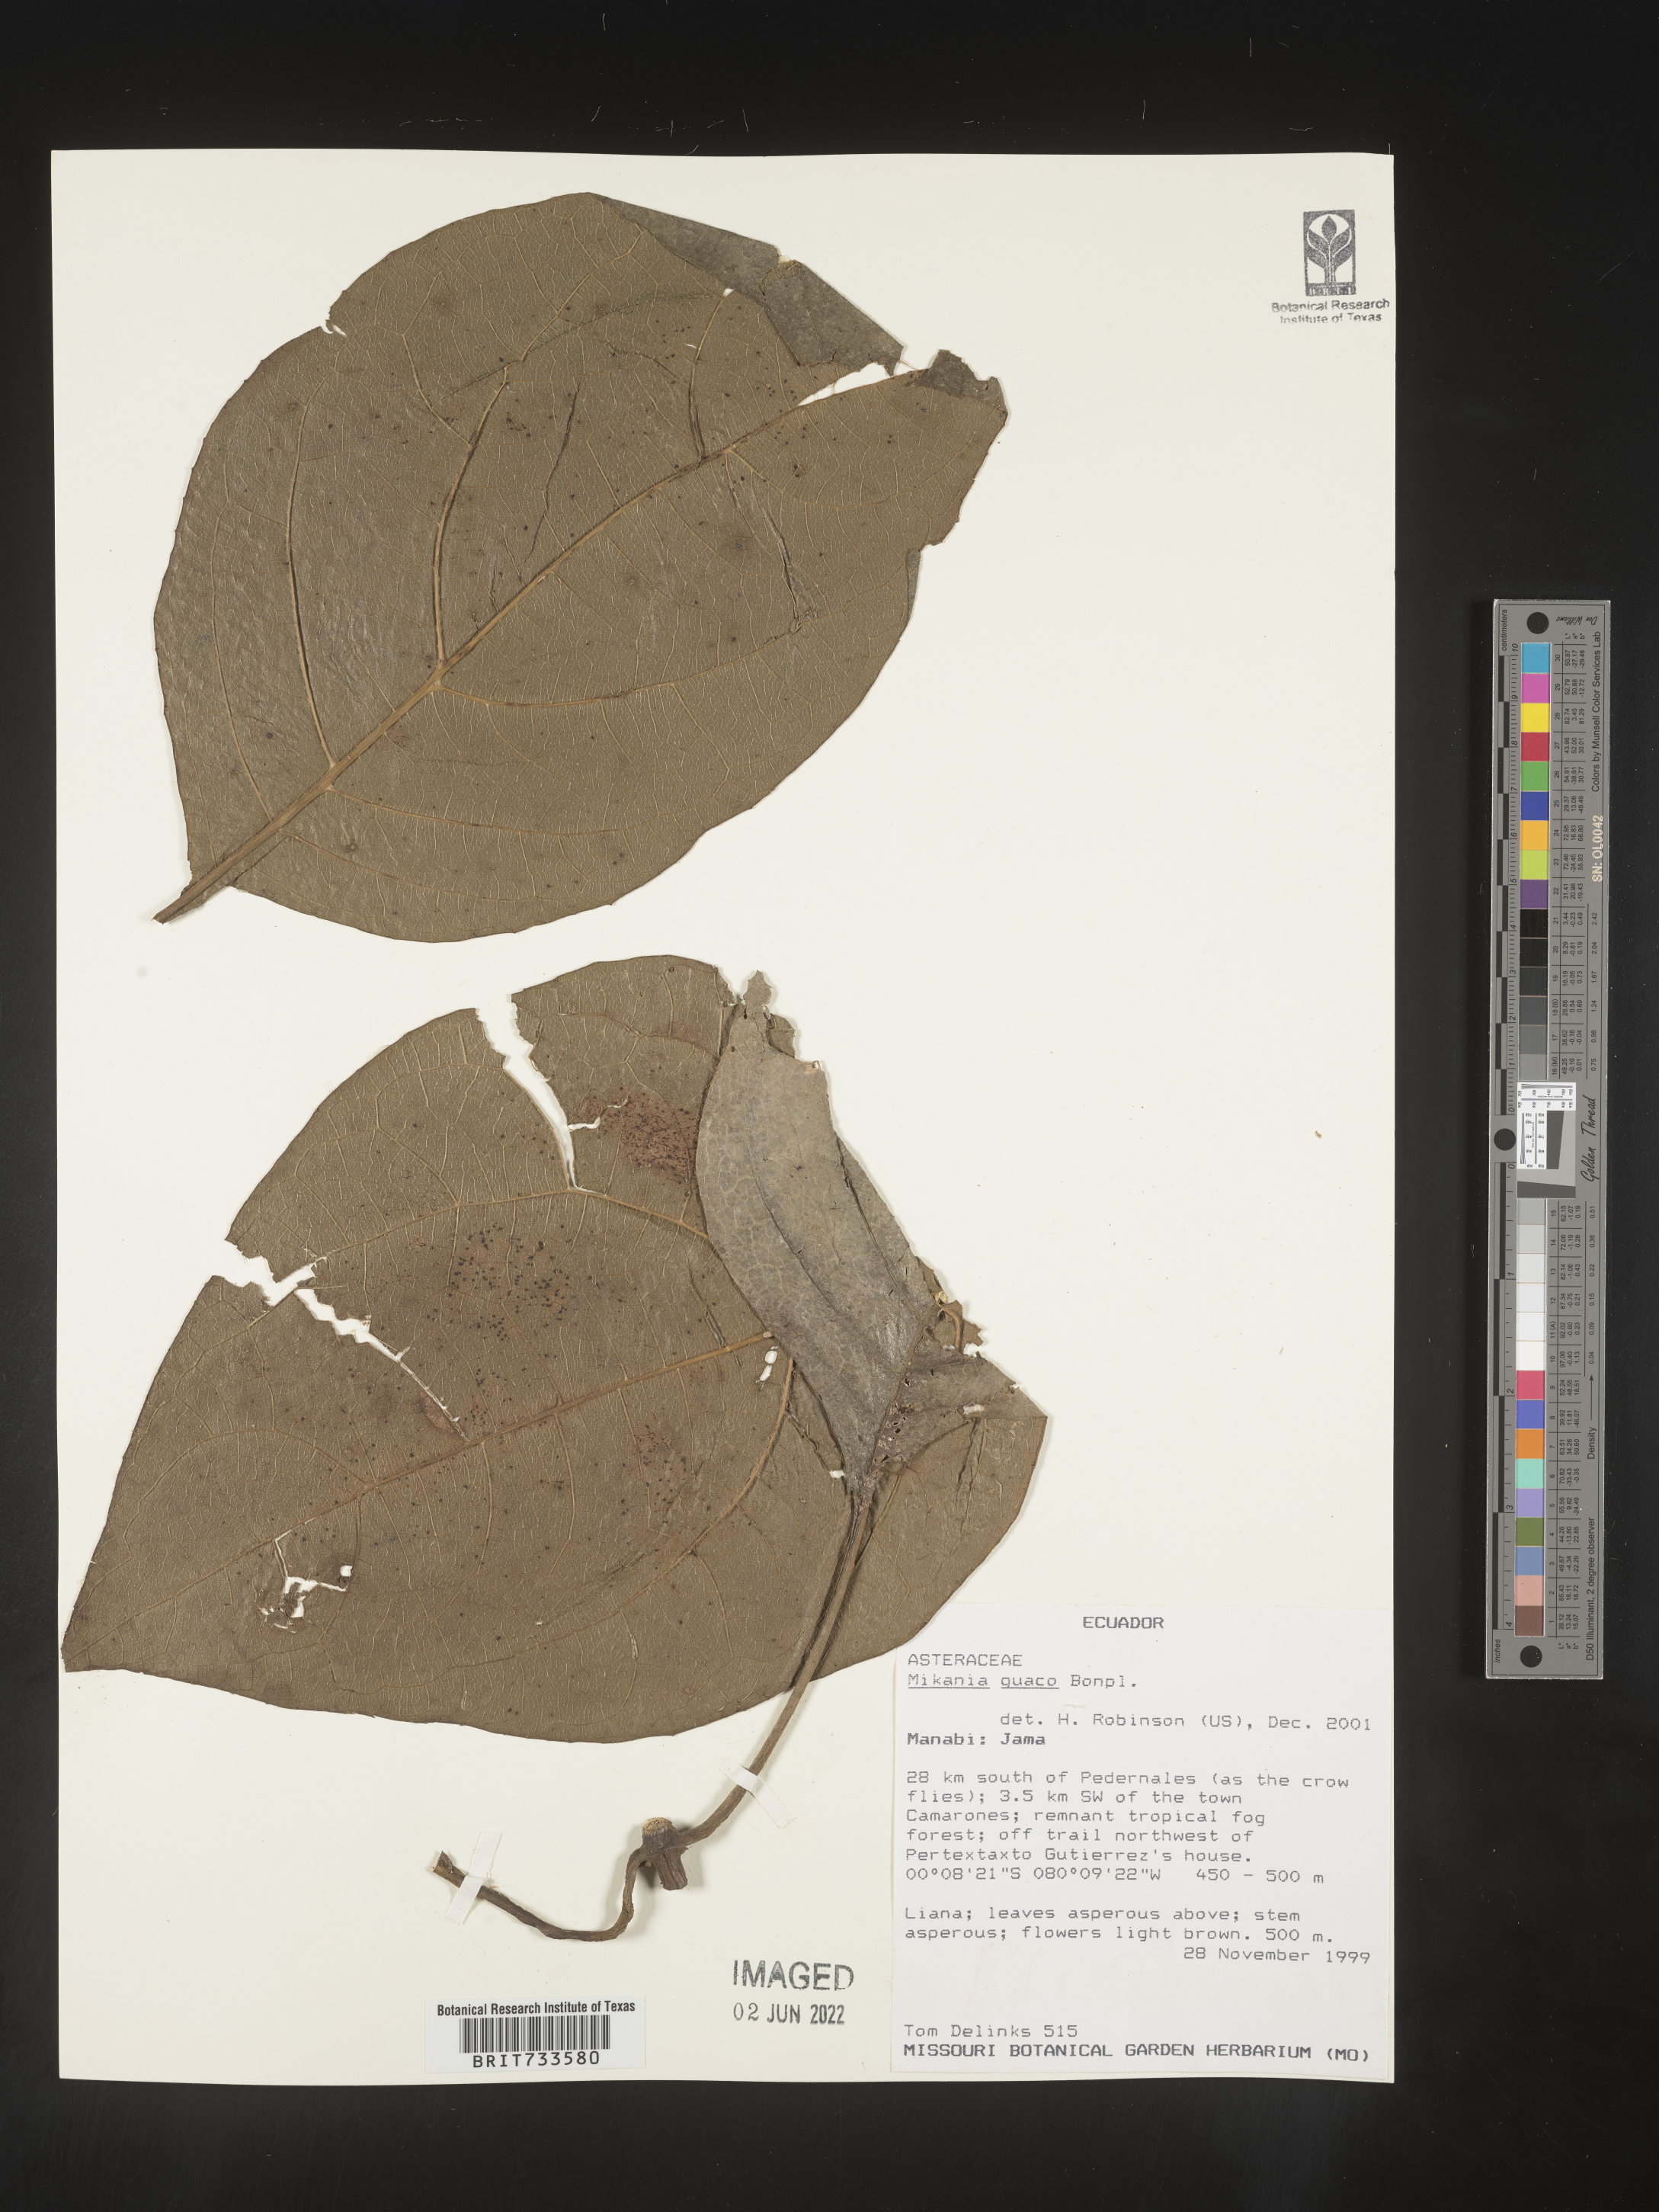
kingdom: Plantae
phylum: Tracheophyta
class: Magnoliopsida
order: Asterales
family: Asteraceae
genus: Mikania
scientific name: Mikania
